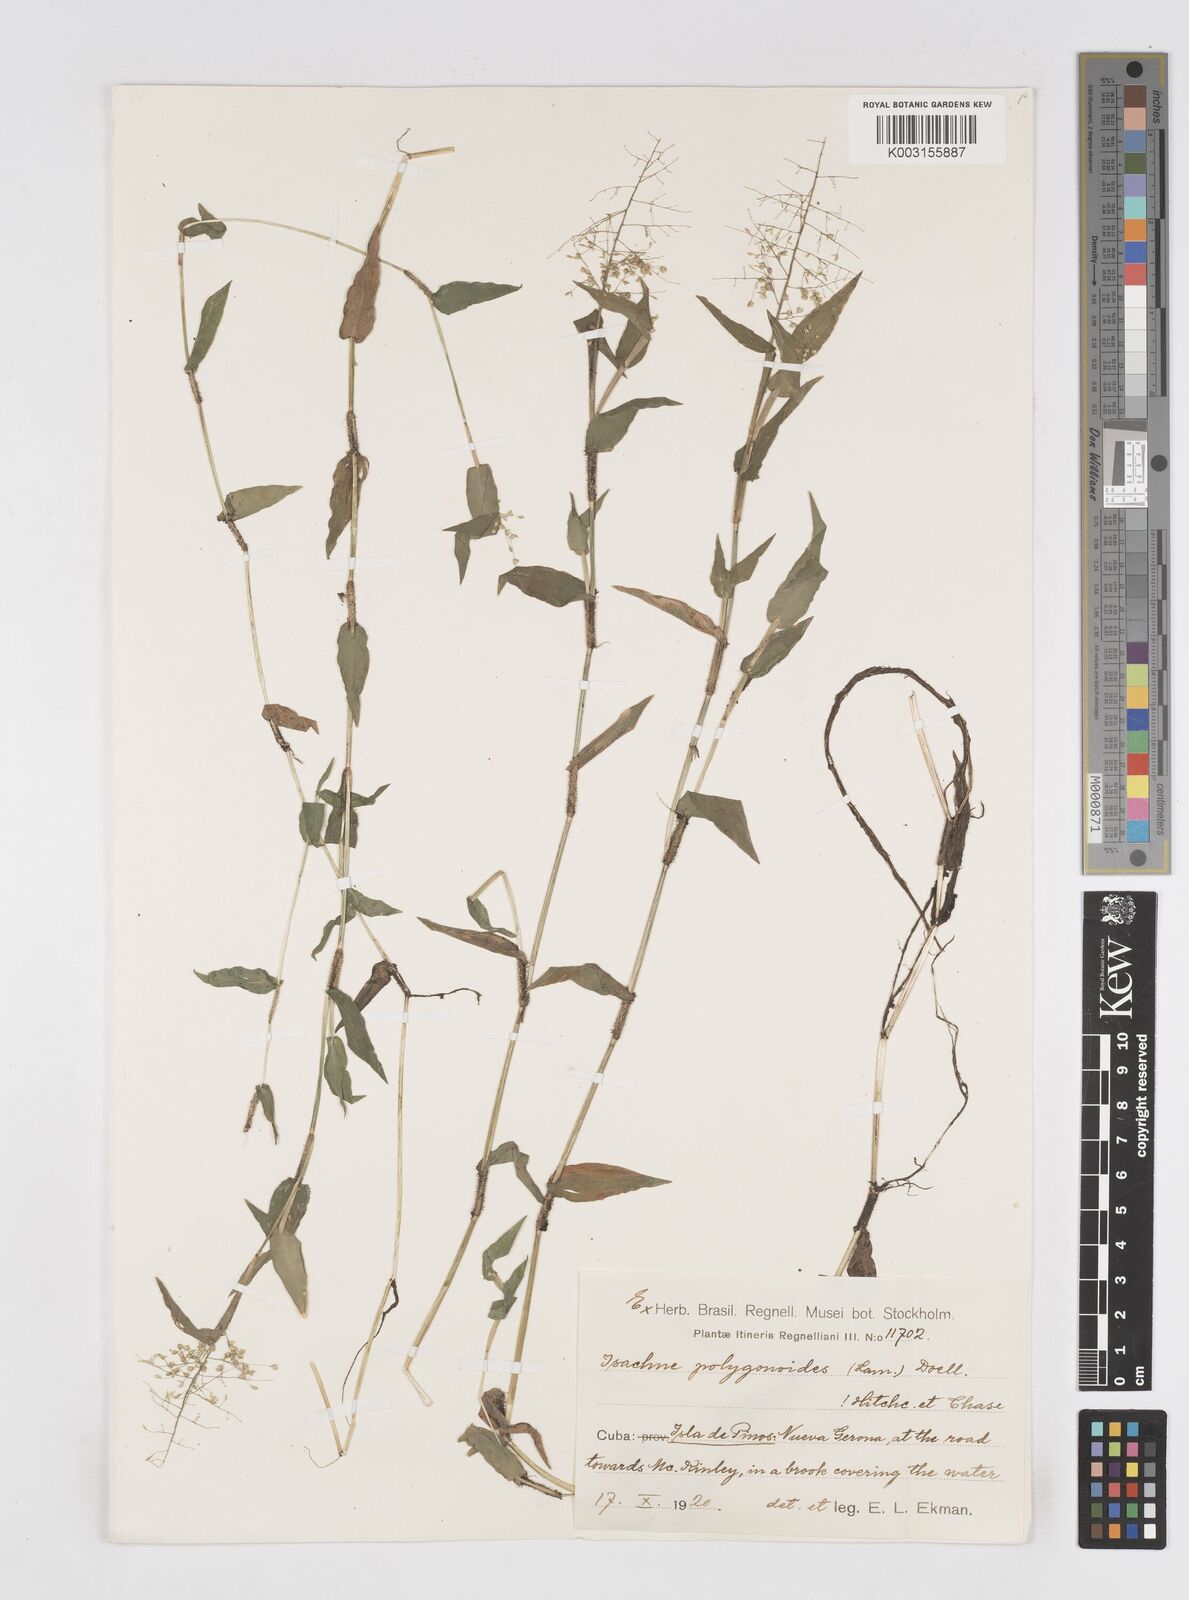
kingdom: Plantae
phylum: Tracheophyta
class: Liliopsida
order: Poales
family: Poaceae
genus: Isachne
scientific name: Isachne polygonoides
